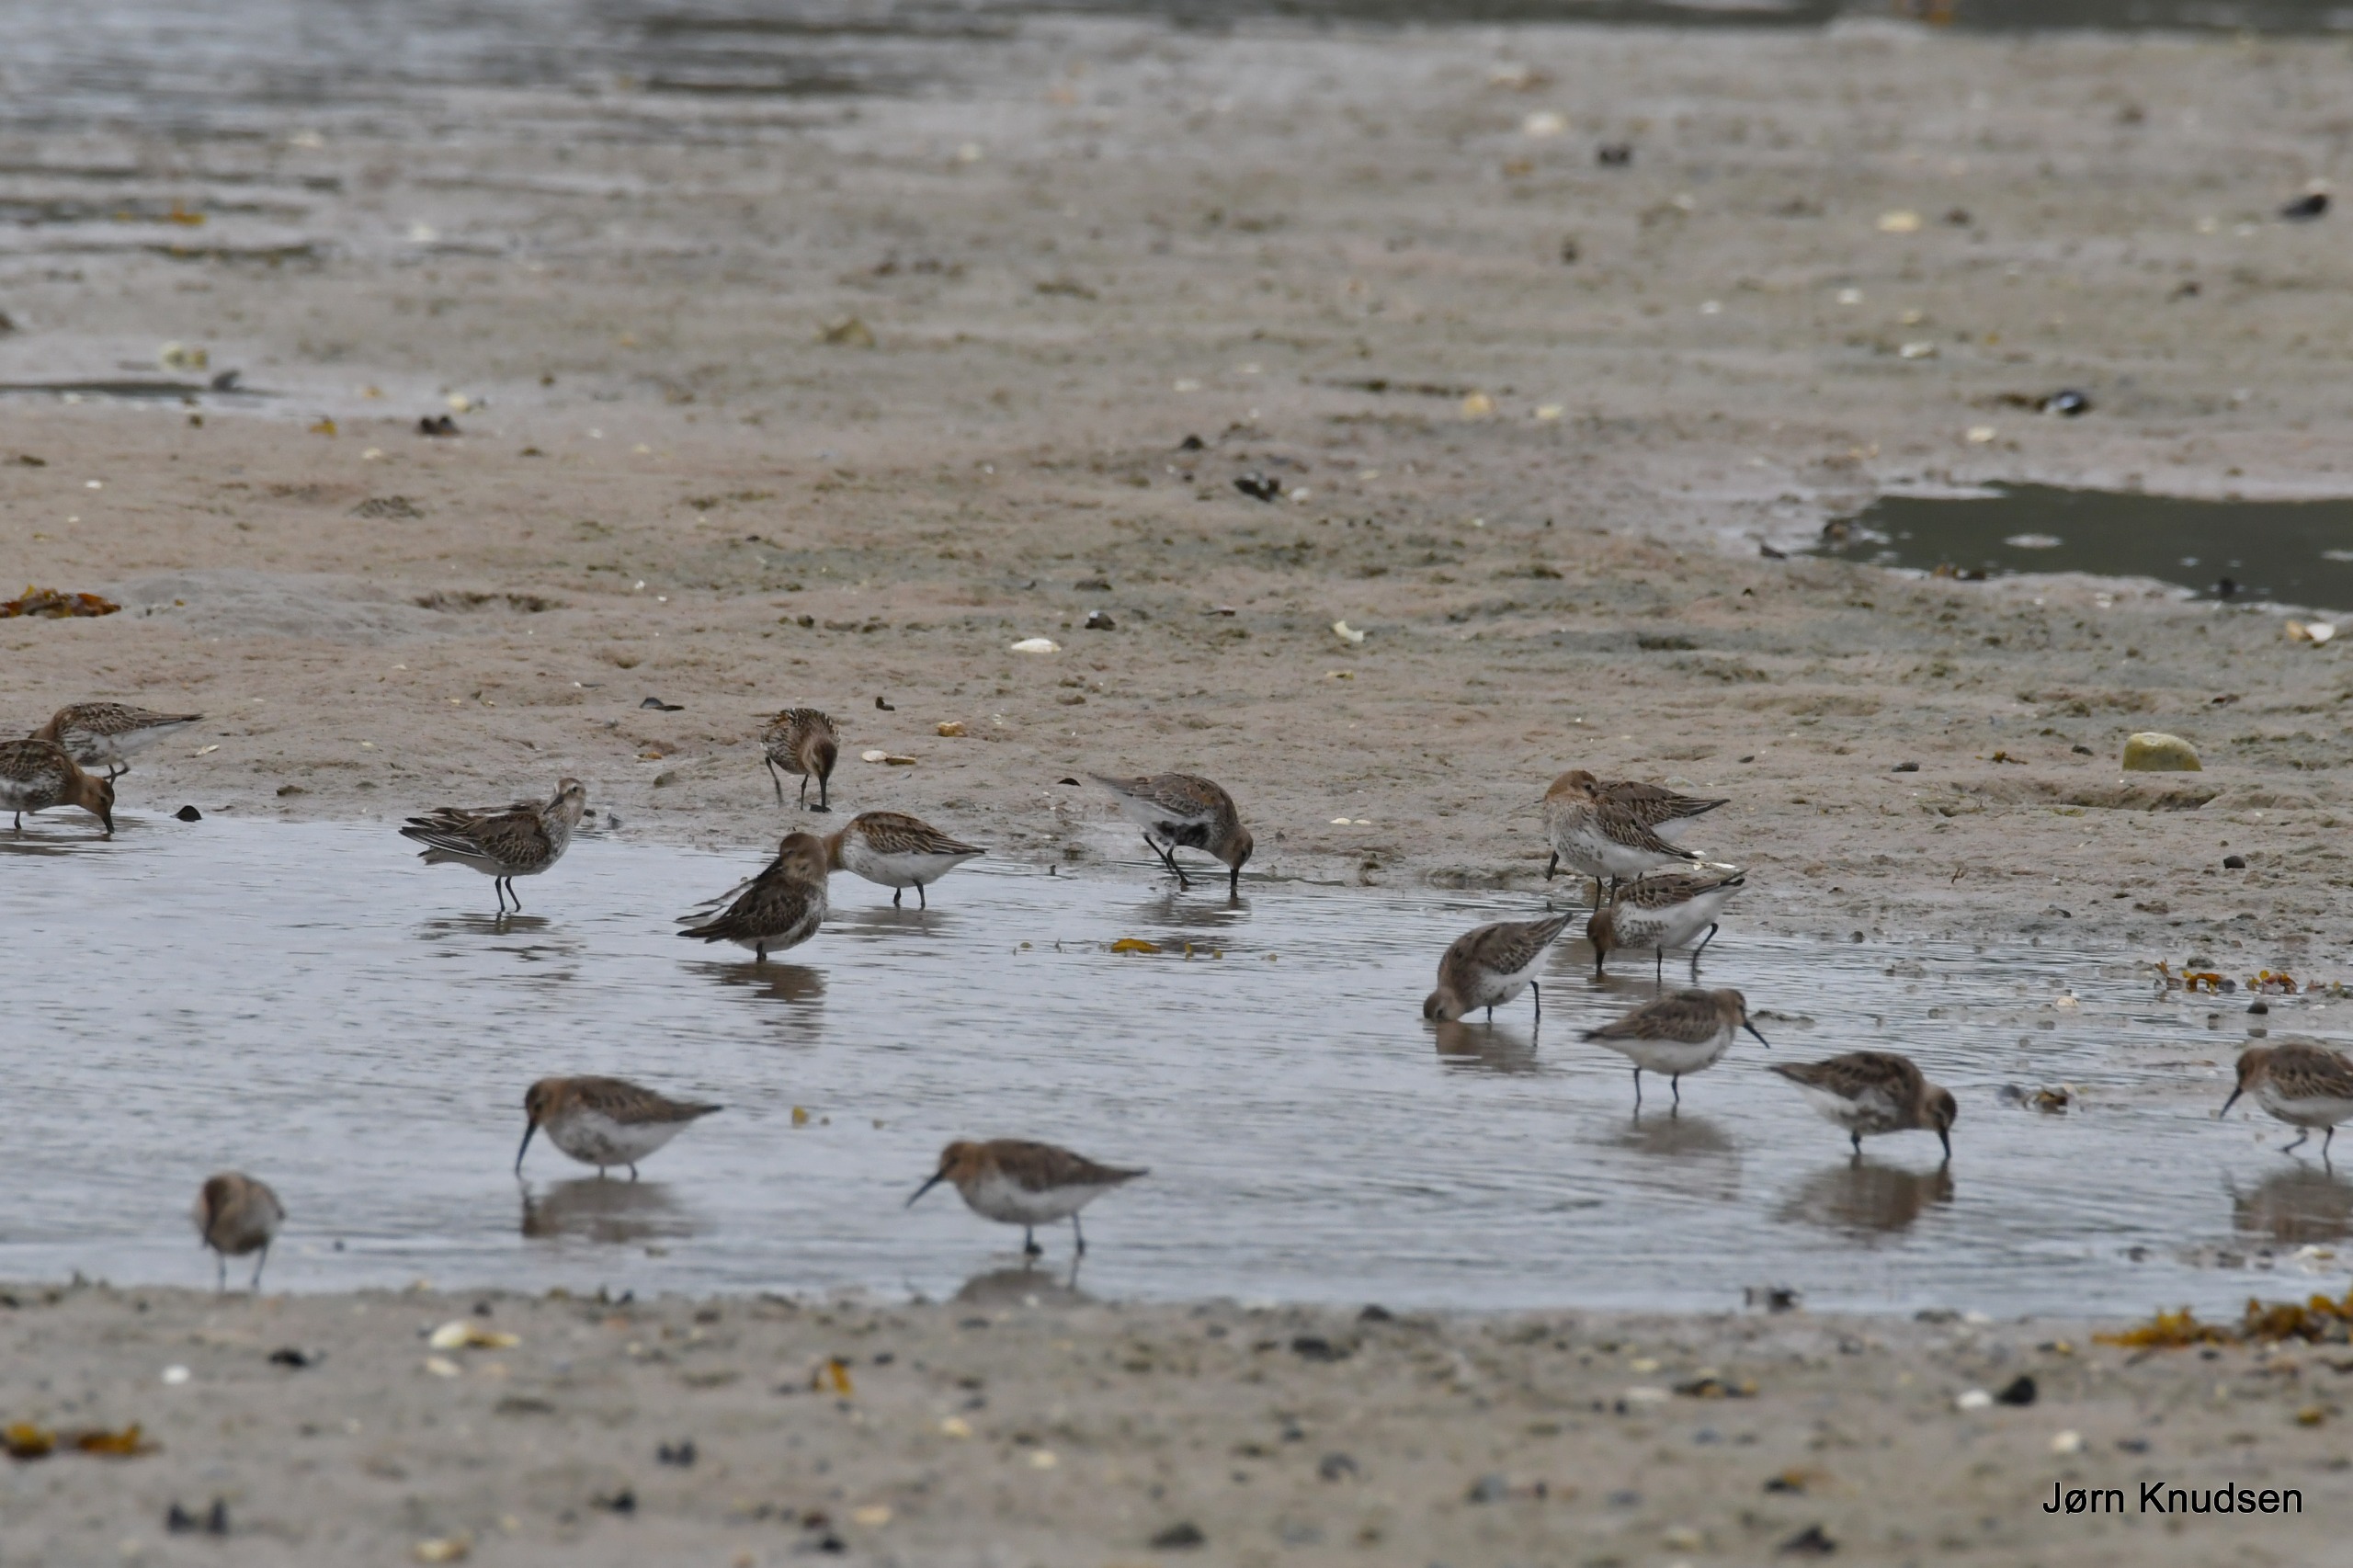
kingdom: Animalia
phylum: Chordata
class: Aves
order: Charadriiformes
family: Scolopacidae
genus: Calidris
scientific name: Calidris alpina
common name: Almindelig ryle
